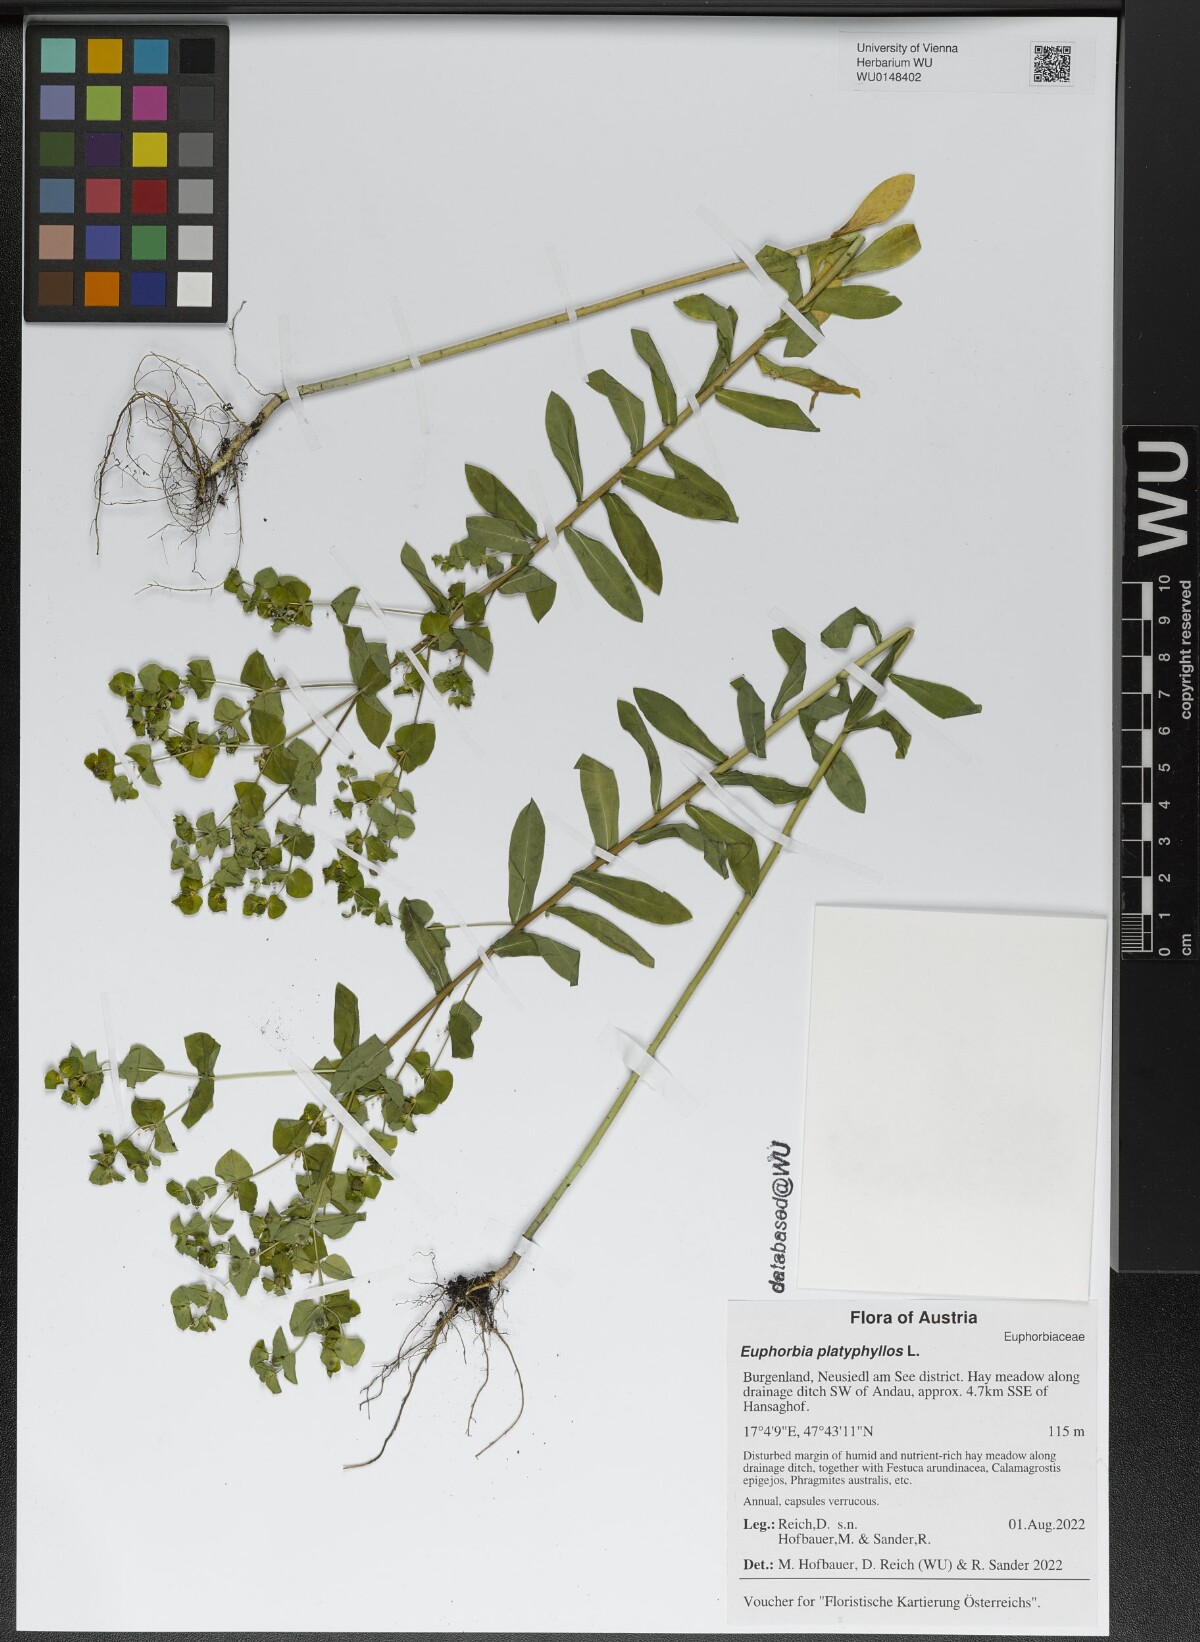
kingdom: Plantae
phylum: Tracheophyta
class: Magnoliopsida
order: Malpighiales
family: Euphorbiaceae
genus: Euphorbia
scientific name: Euphorbia platyphyllos
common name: Broad-leaved spurge
